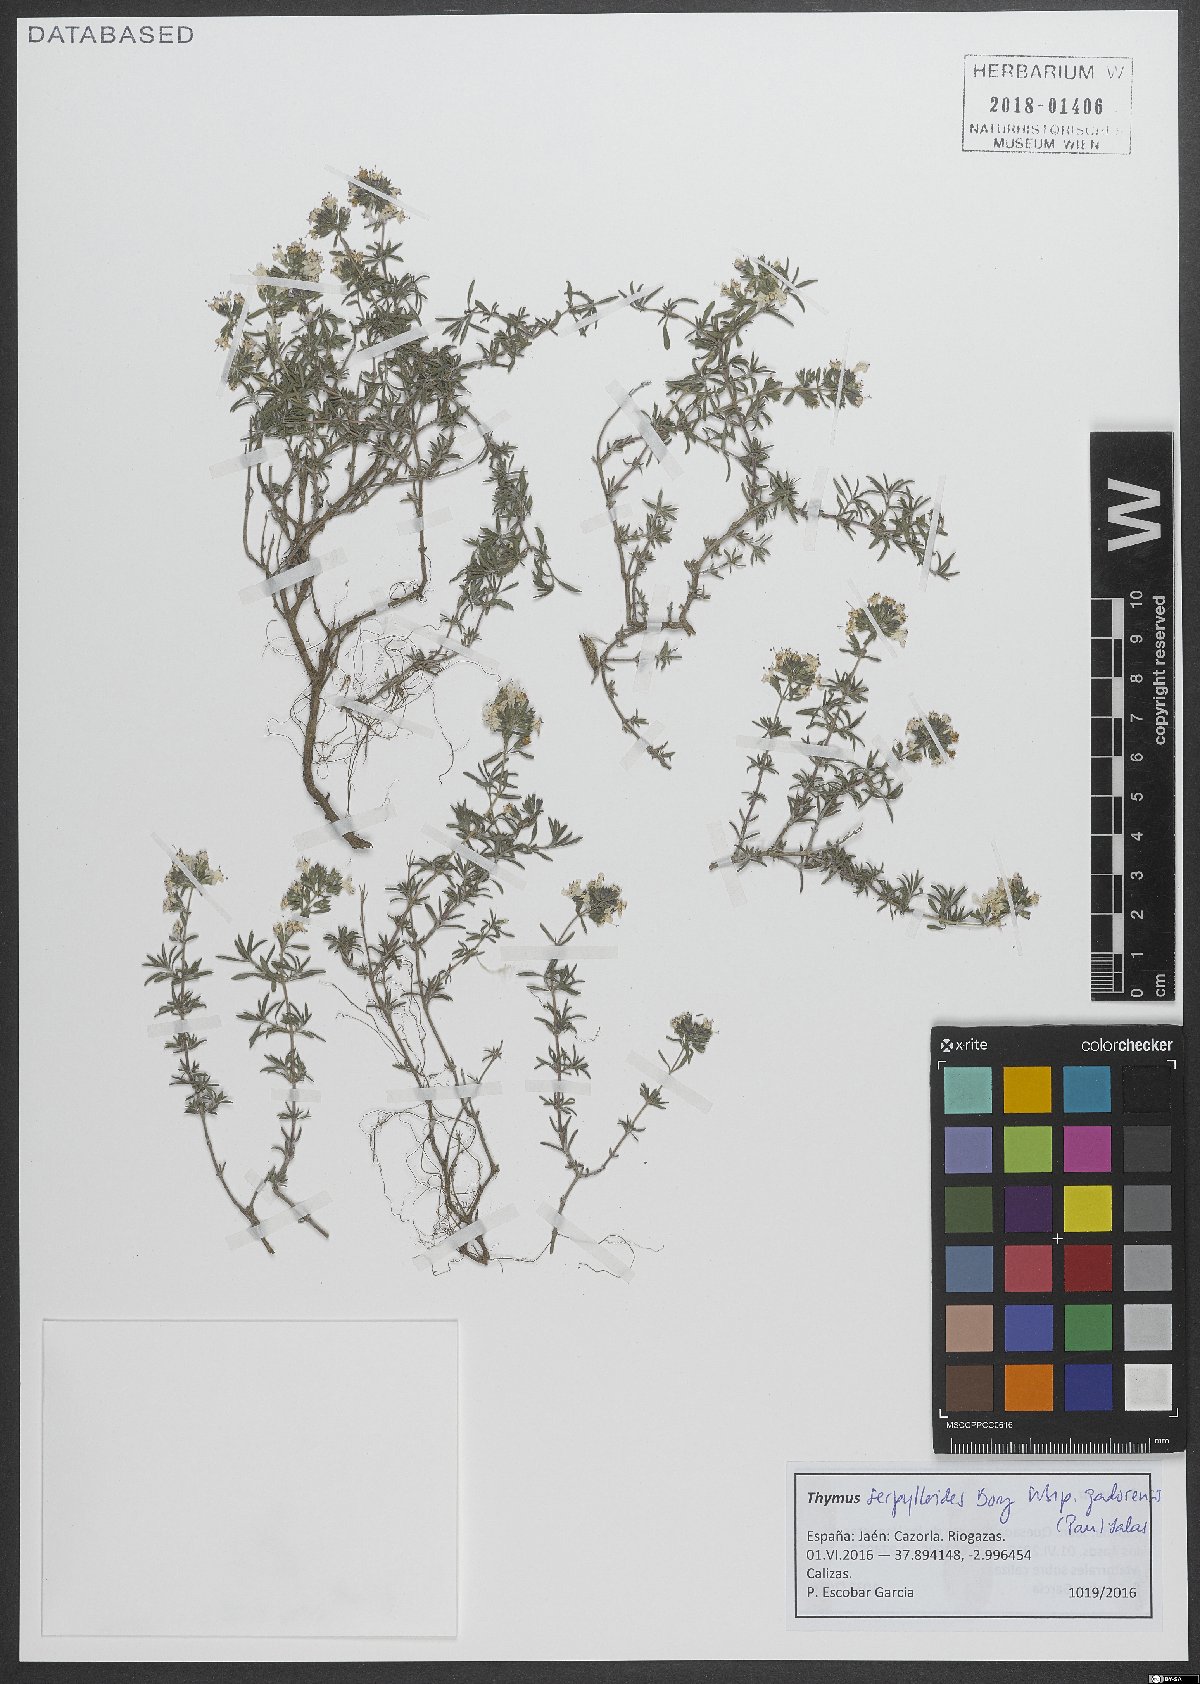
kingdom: Plantae
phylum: Tracheophyta
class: Magnoliopsida
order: Lamiales
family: Lamiaceae
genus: Thymus
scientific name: Thymus serpylloides
